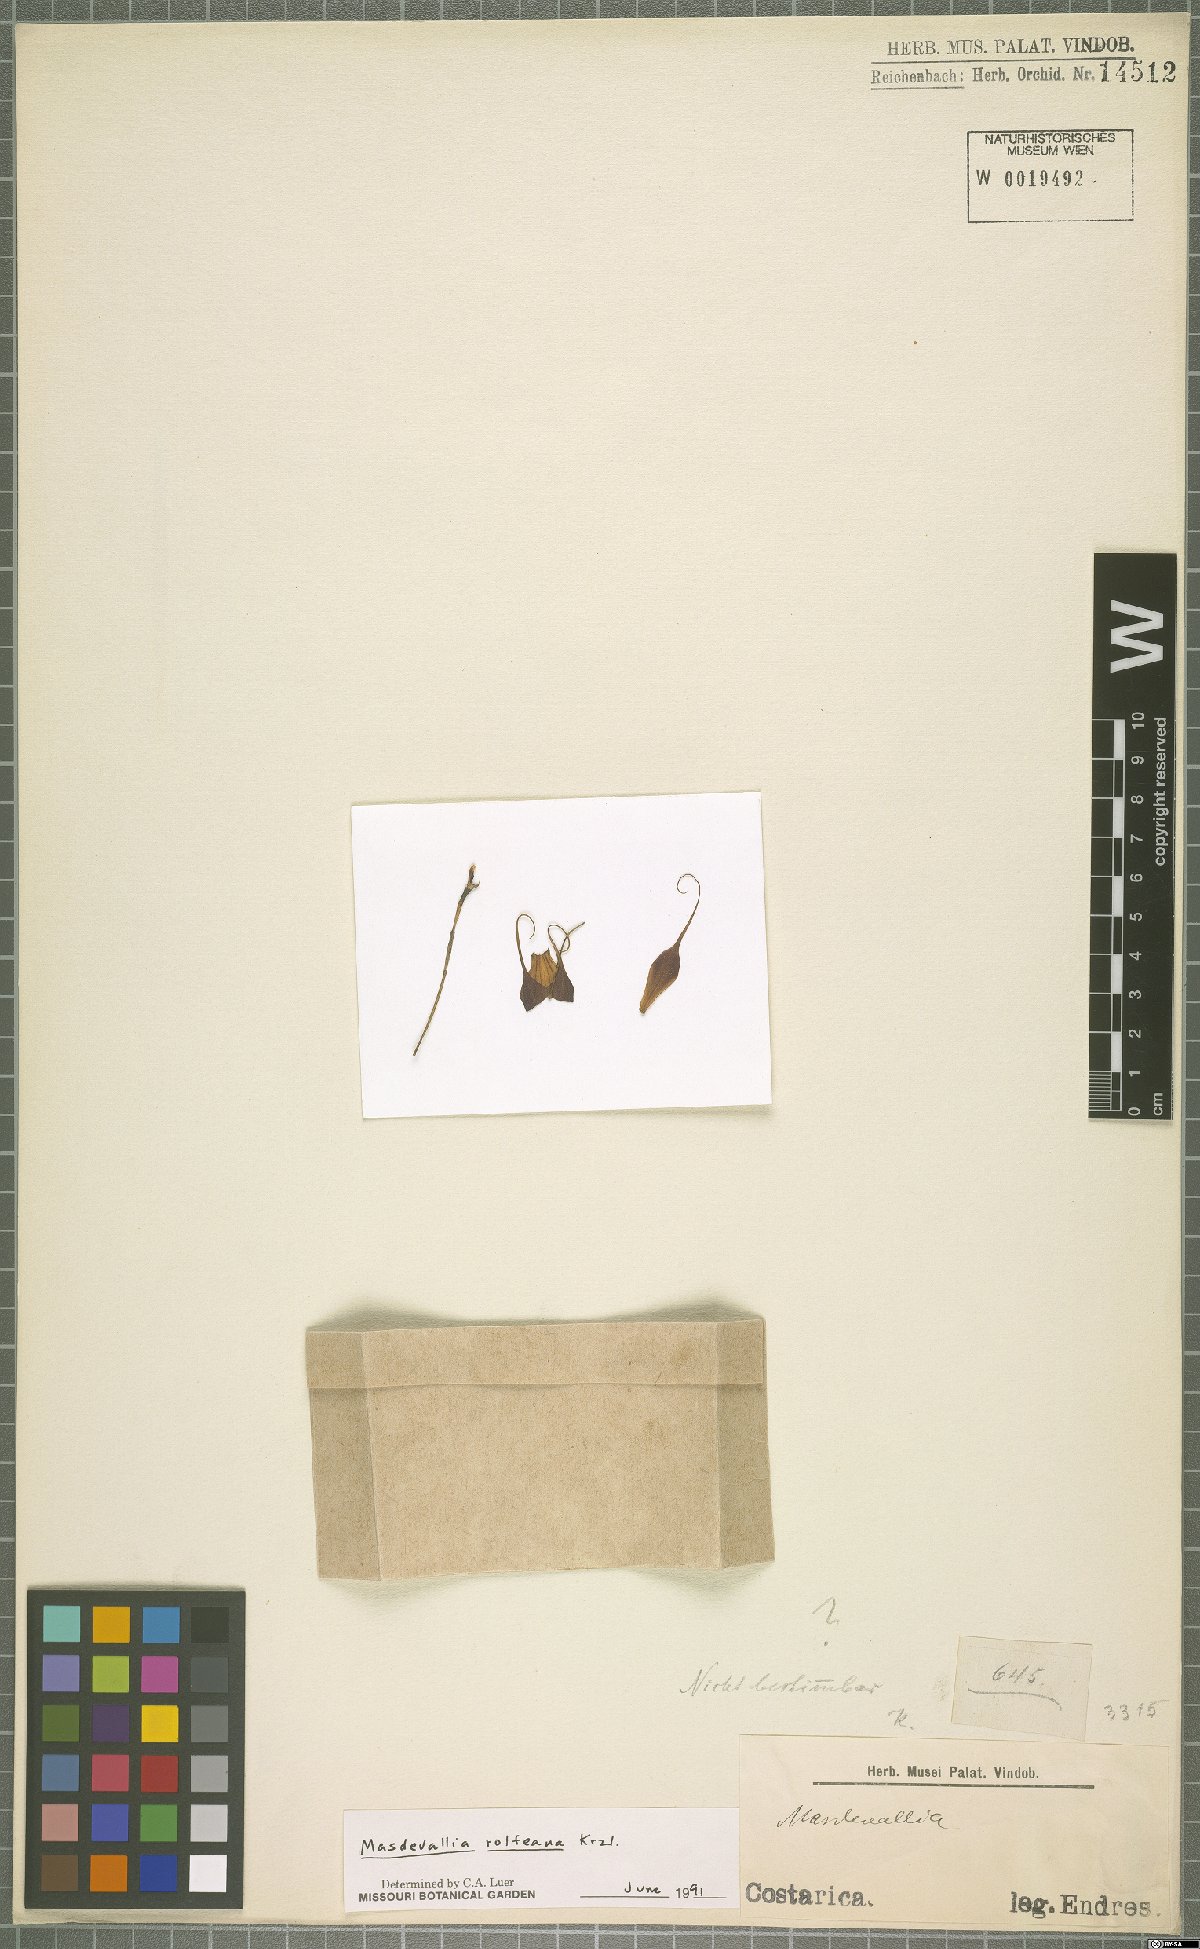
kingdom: Plantae
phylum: Tracheophyta
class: Liliopsida
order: Asparagales
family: Orchidaceae
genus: Masdevallia
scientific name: Masdevallia rolfeana
